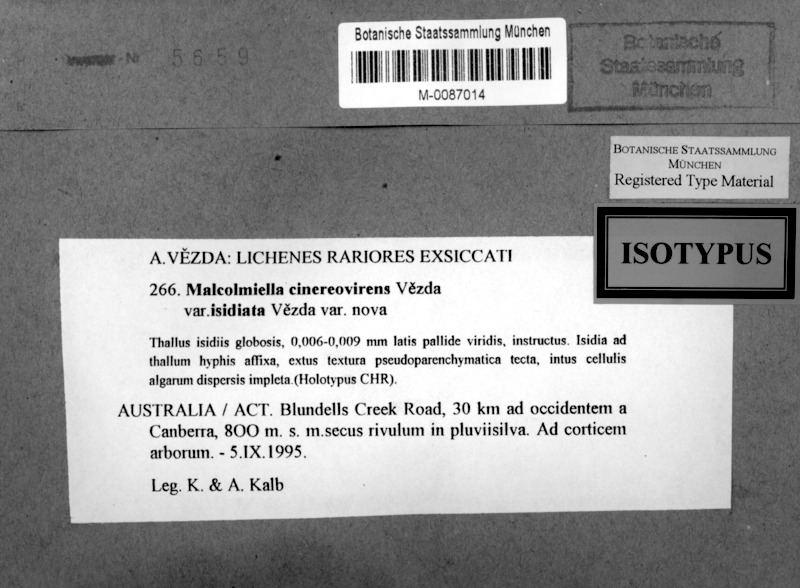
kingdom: Fungi
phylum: Ascomycota
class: Lecanoromycetes
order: Teloschistales
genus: Malcolmiella
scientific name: Malcolmiella cinereovirens
